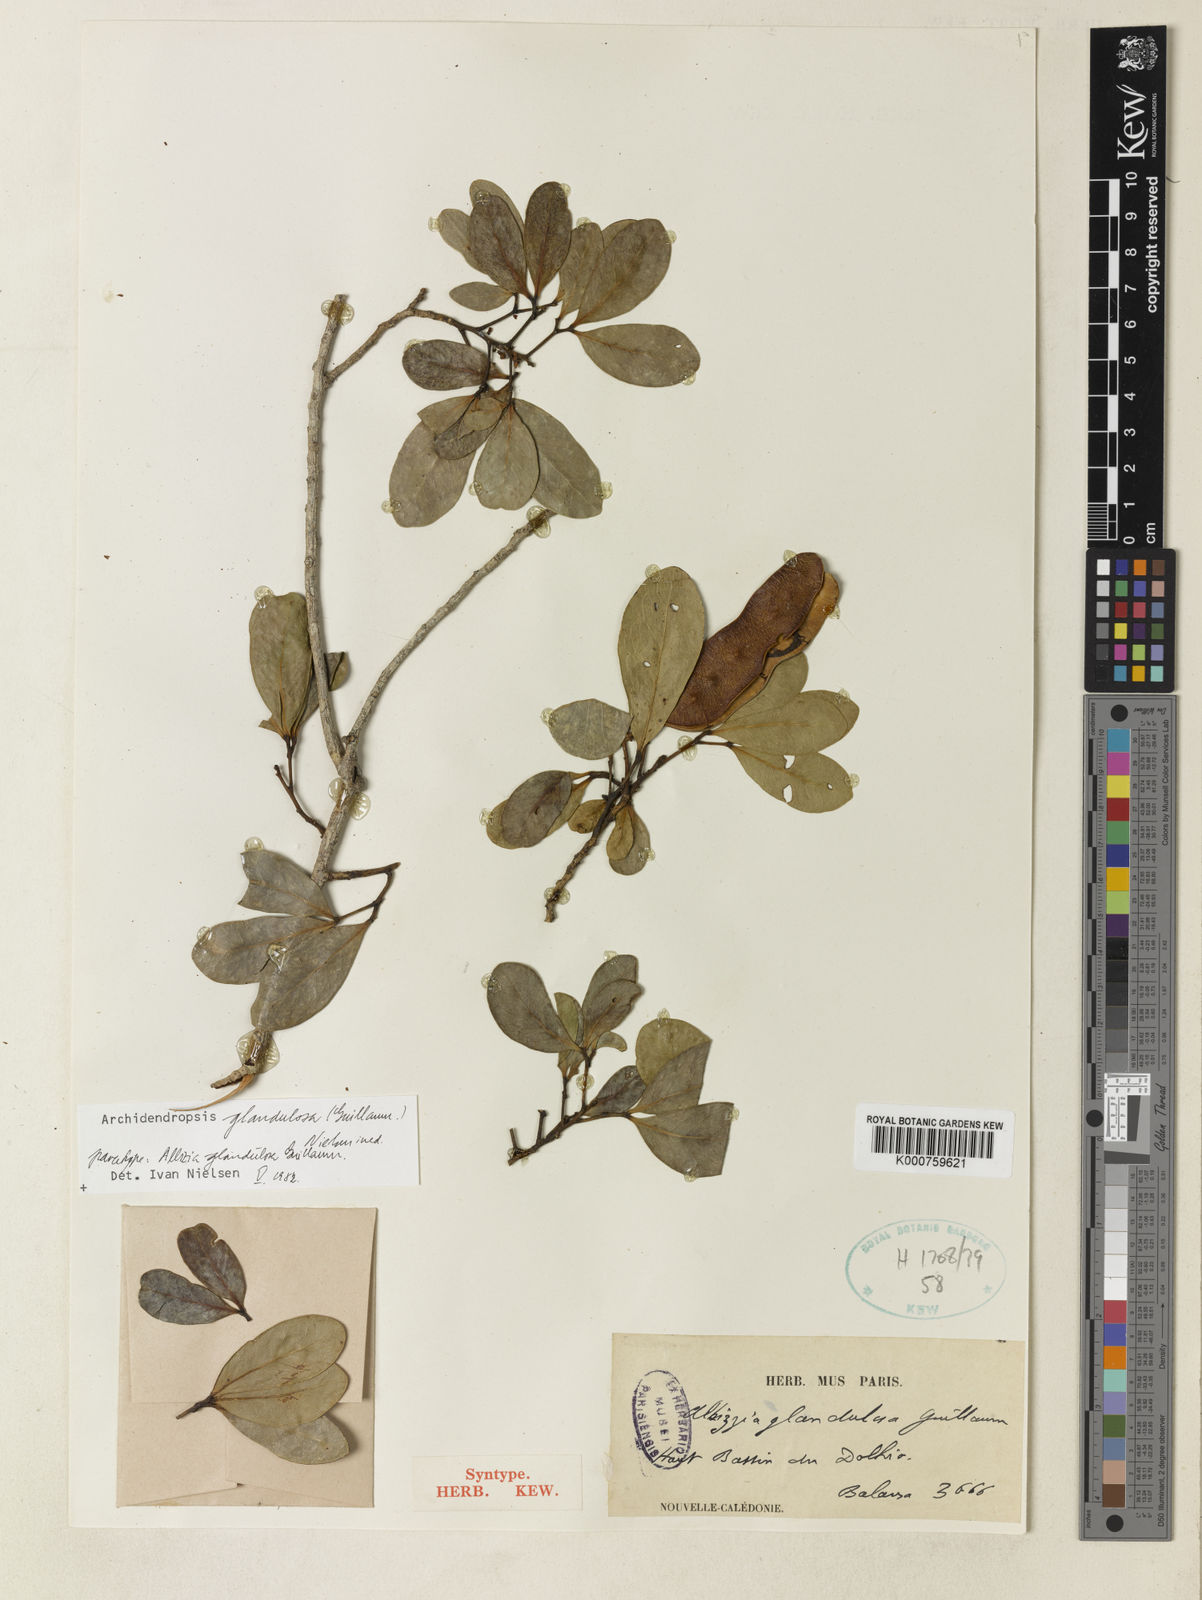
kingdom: Plantae
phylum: Tracheophyta
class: Magnoliopsida
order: Fabales
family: Fabaceae
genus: Archidendropsis
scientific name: Archidendropsis glandulosa
